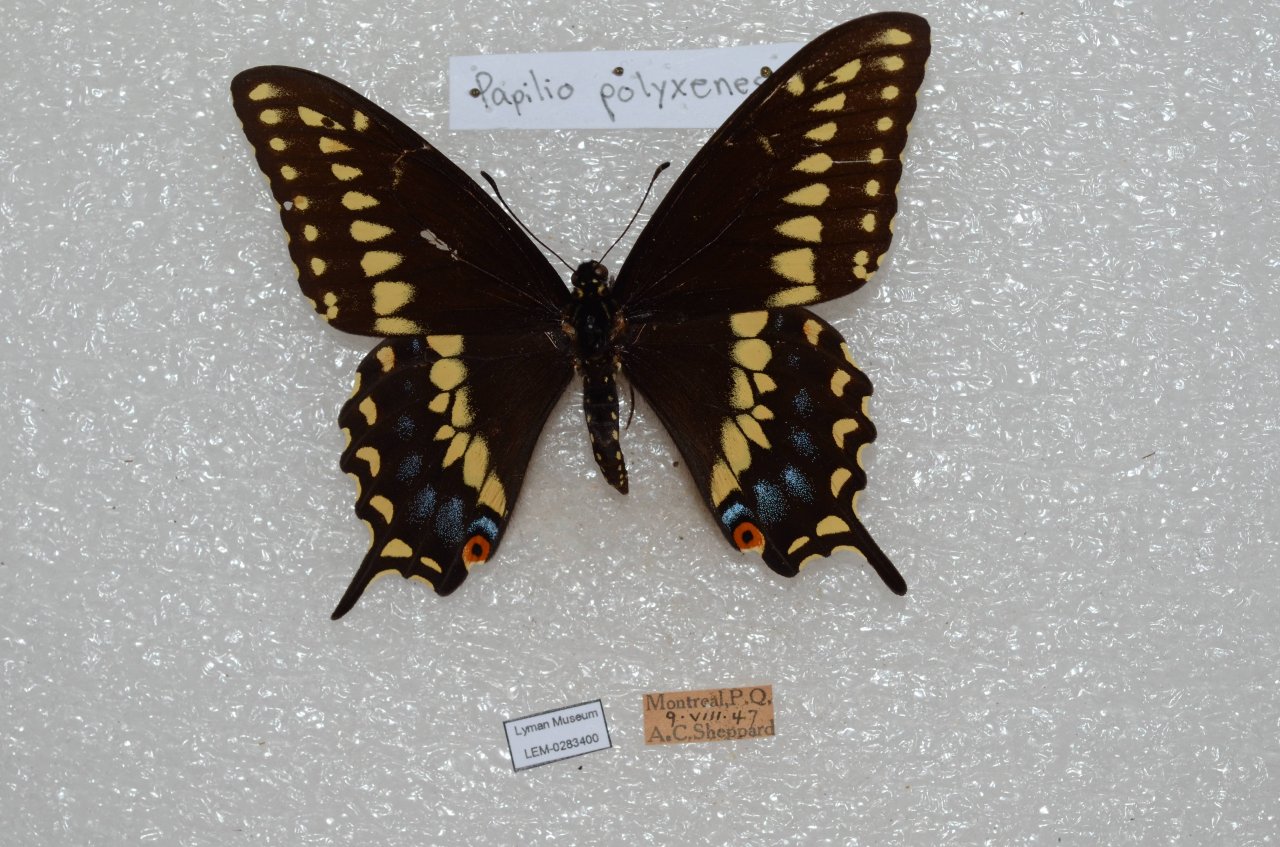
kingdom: Animalia
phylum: Arthropoda
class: Insecta
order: Lepidoptera
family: Papilionidae
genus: Papilio
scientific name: Papilio polyxenes
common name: Black Swallowtail
